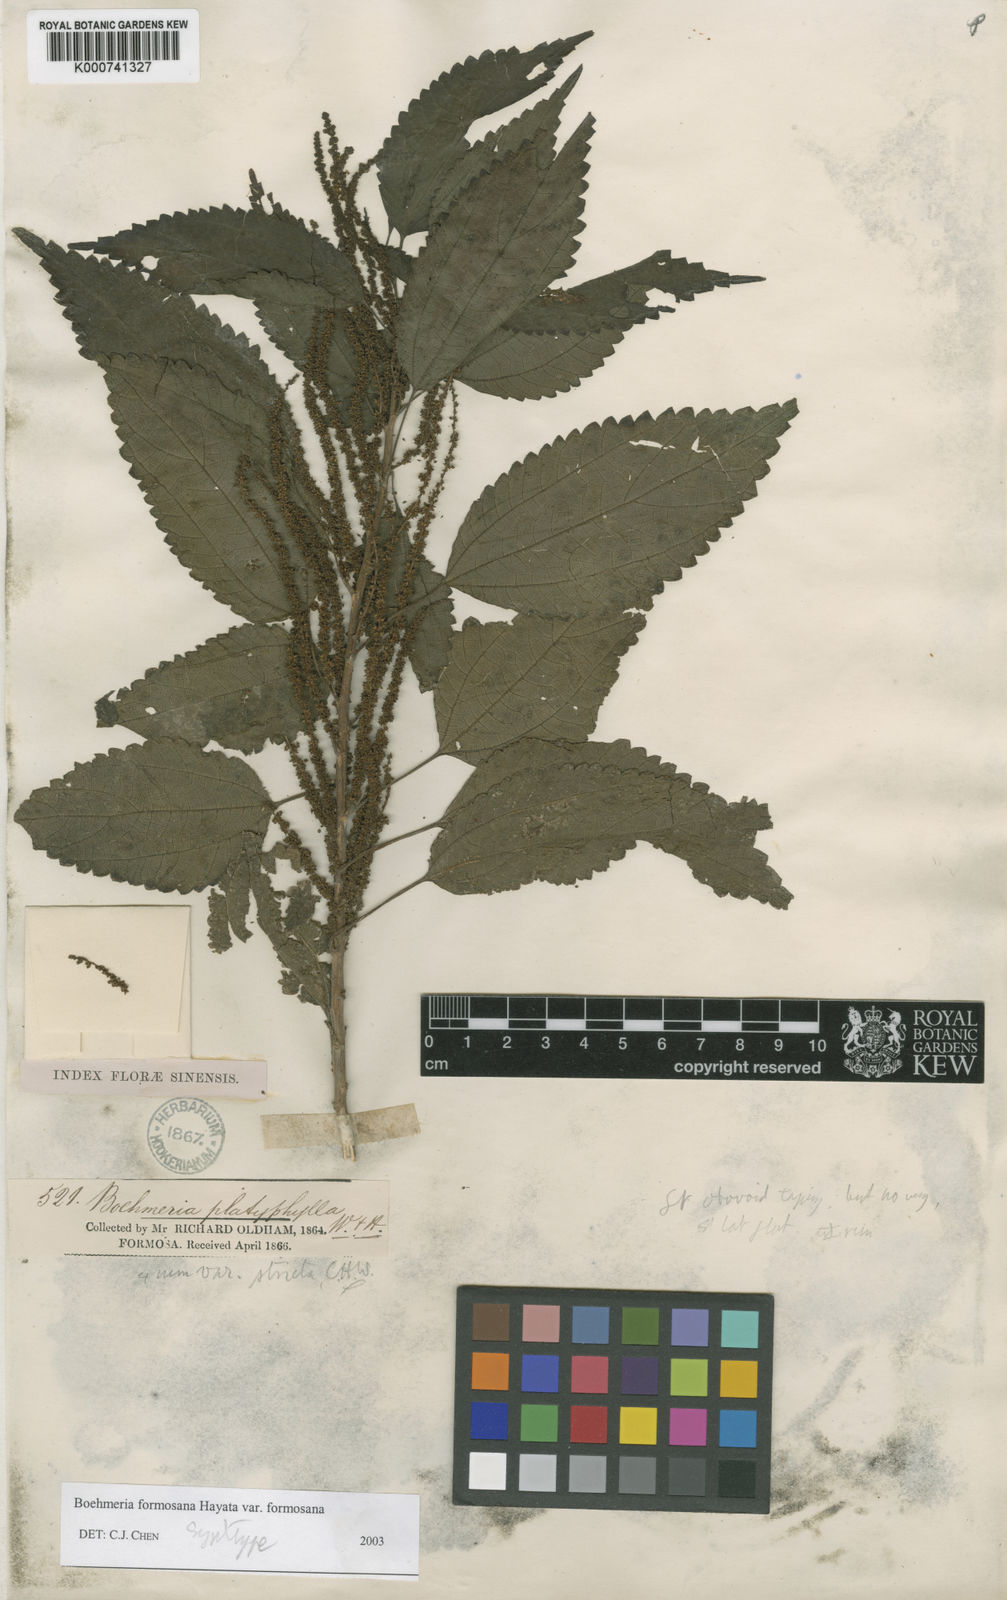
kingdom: Plantae
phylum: Tracheophyta
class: Magnoliopsida
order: Rosales
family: Urticaceae
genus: Boehmeria
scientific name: Boehmeria sieboldiana
